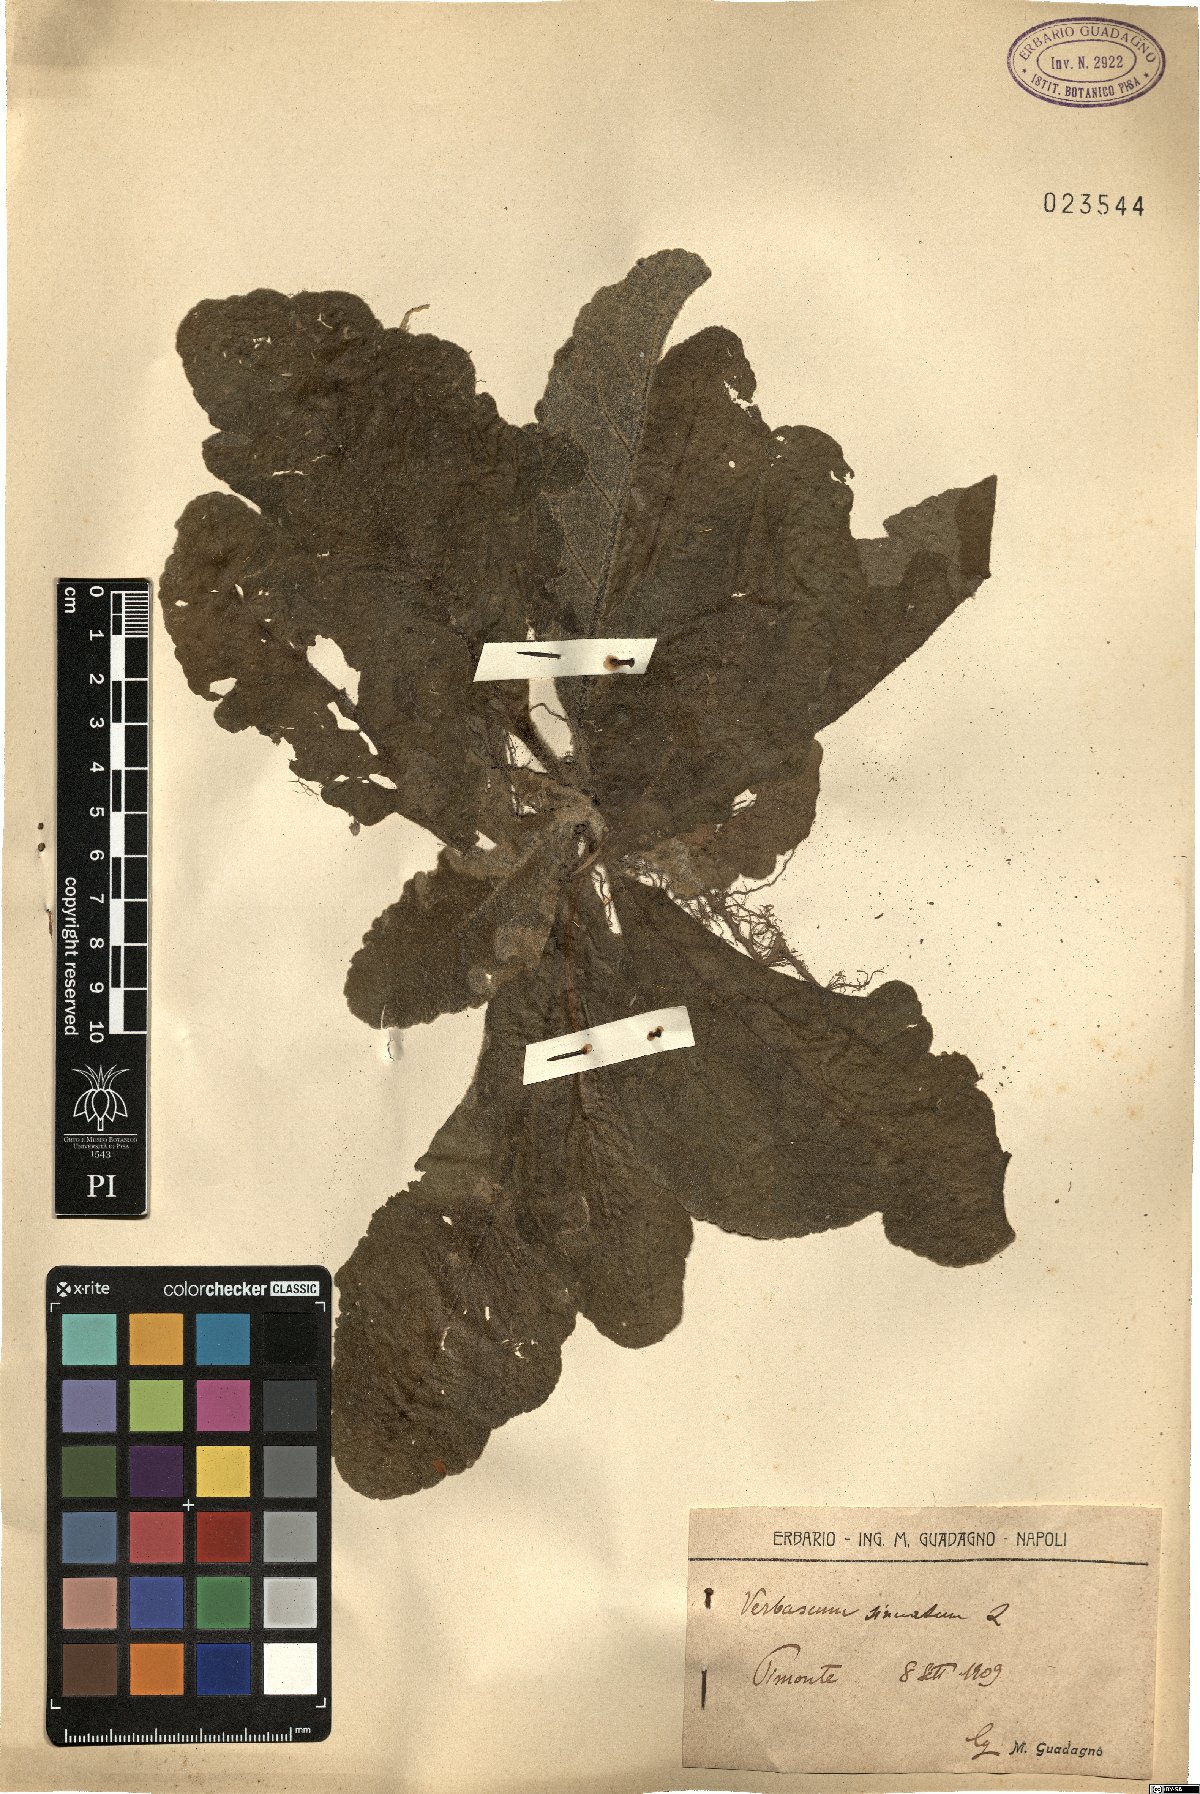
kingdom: Plantae
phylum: Tracheophyta
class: Magnoliopsida
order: Lamiales
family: Scrophulariaceae
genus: Verbascum
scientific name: Verbascum sinuatum
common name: Wavyleaf mullein
